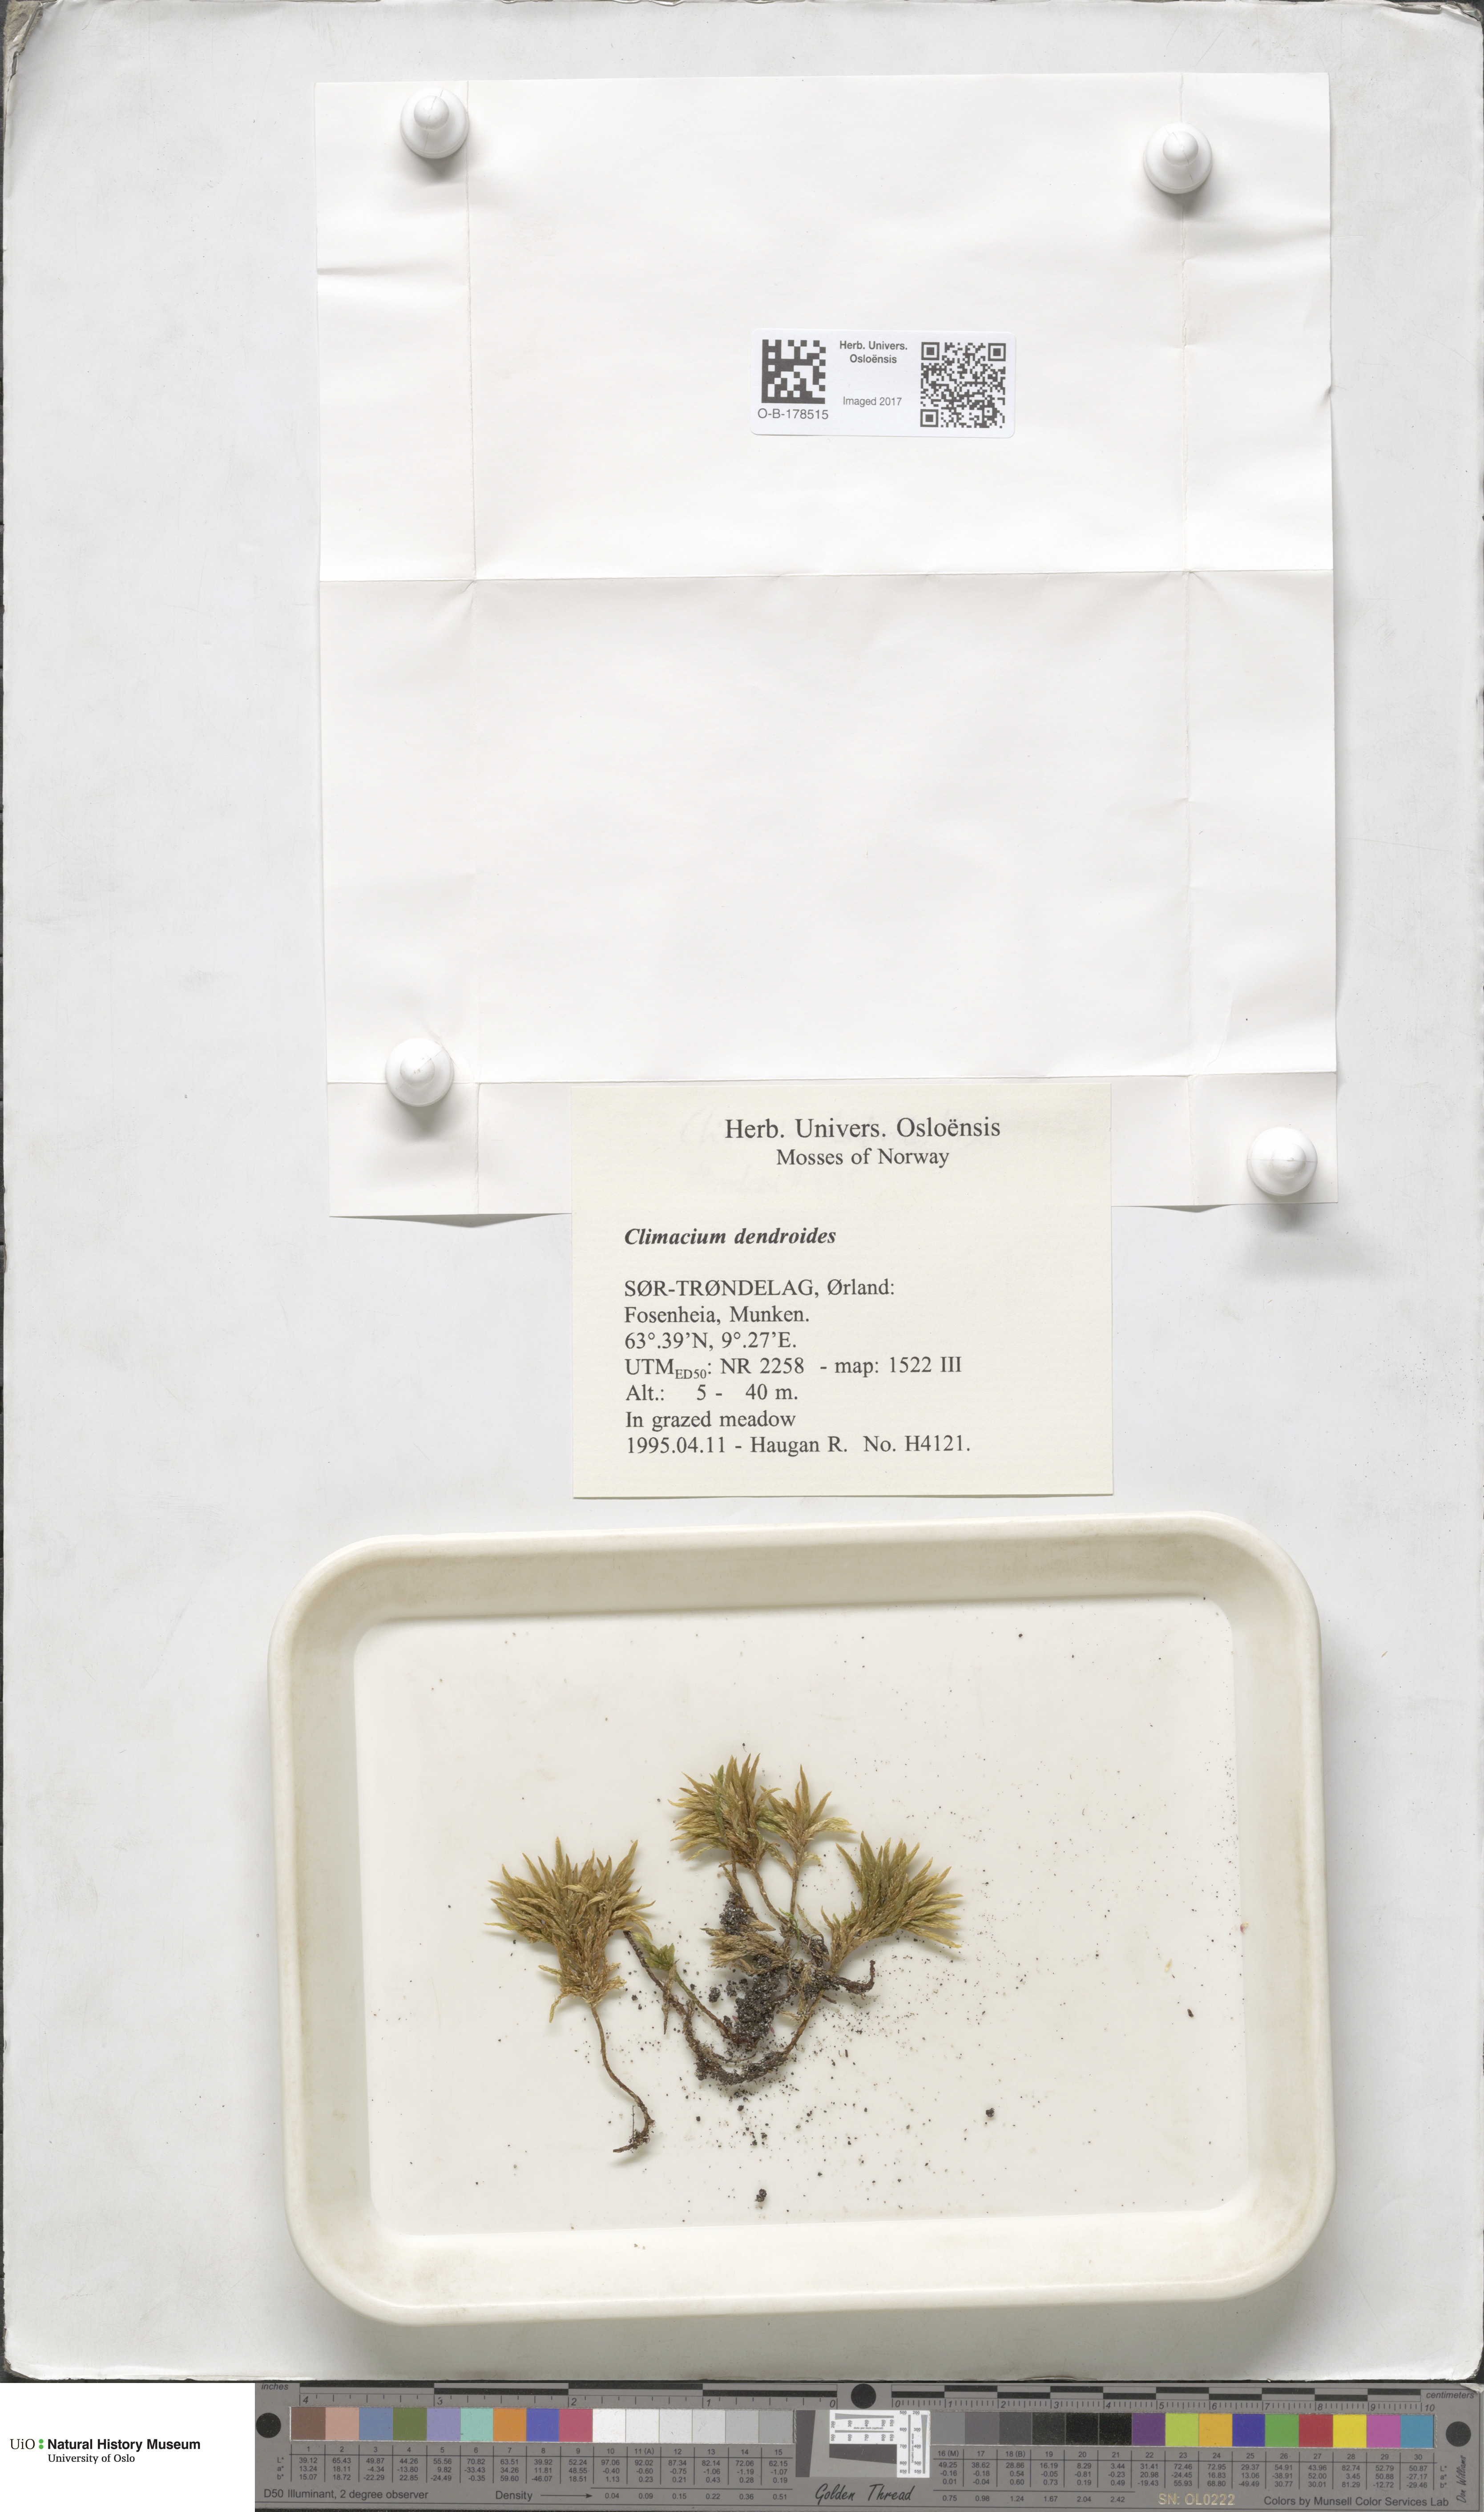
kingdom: Plantae
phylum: Bryophyta
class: Bryopsida
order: Hypnales
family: Climaciaceae
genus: Climacium
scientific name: Climacium dendroides
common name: Northern tree moss
